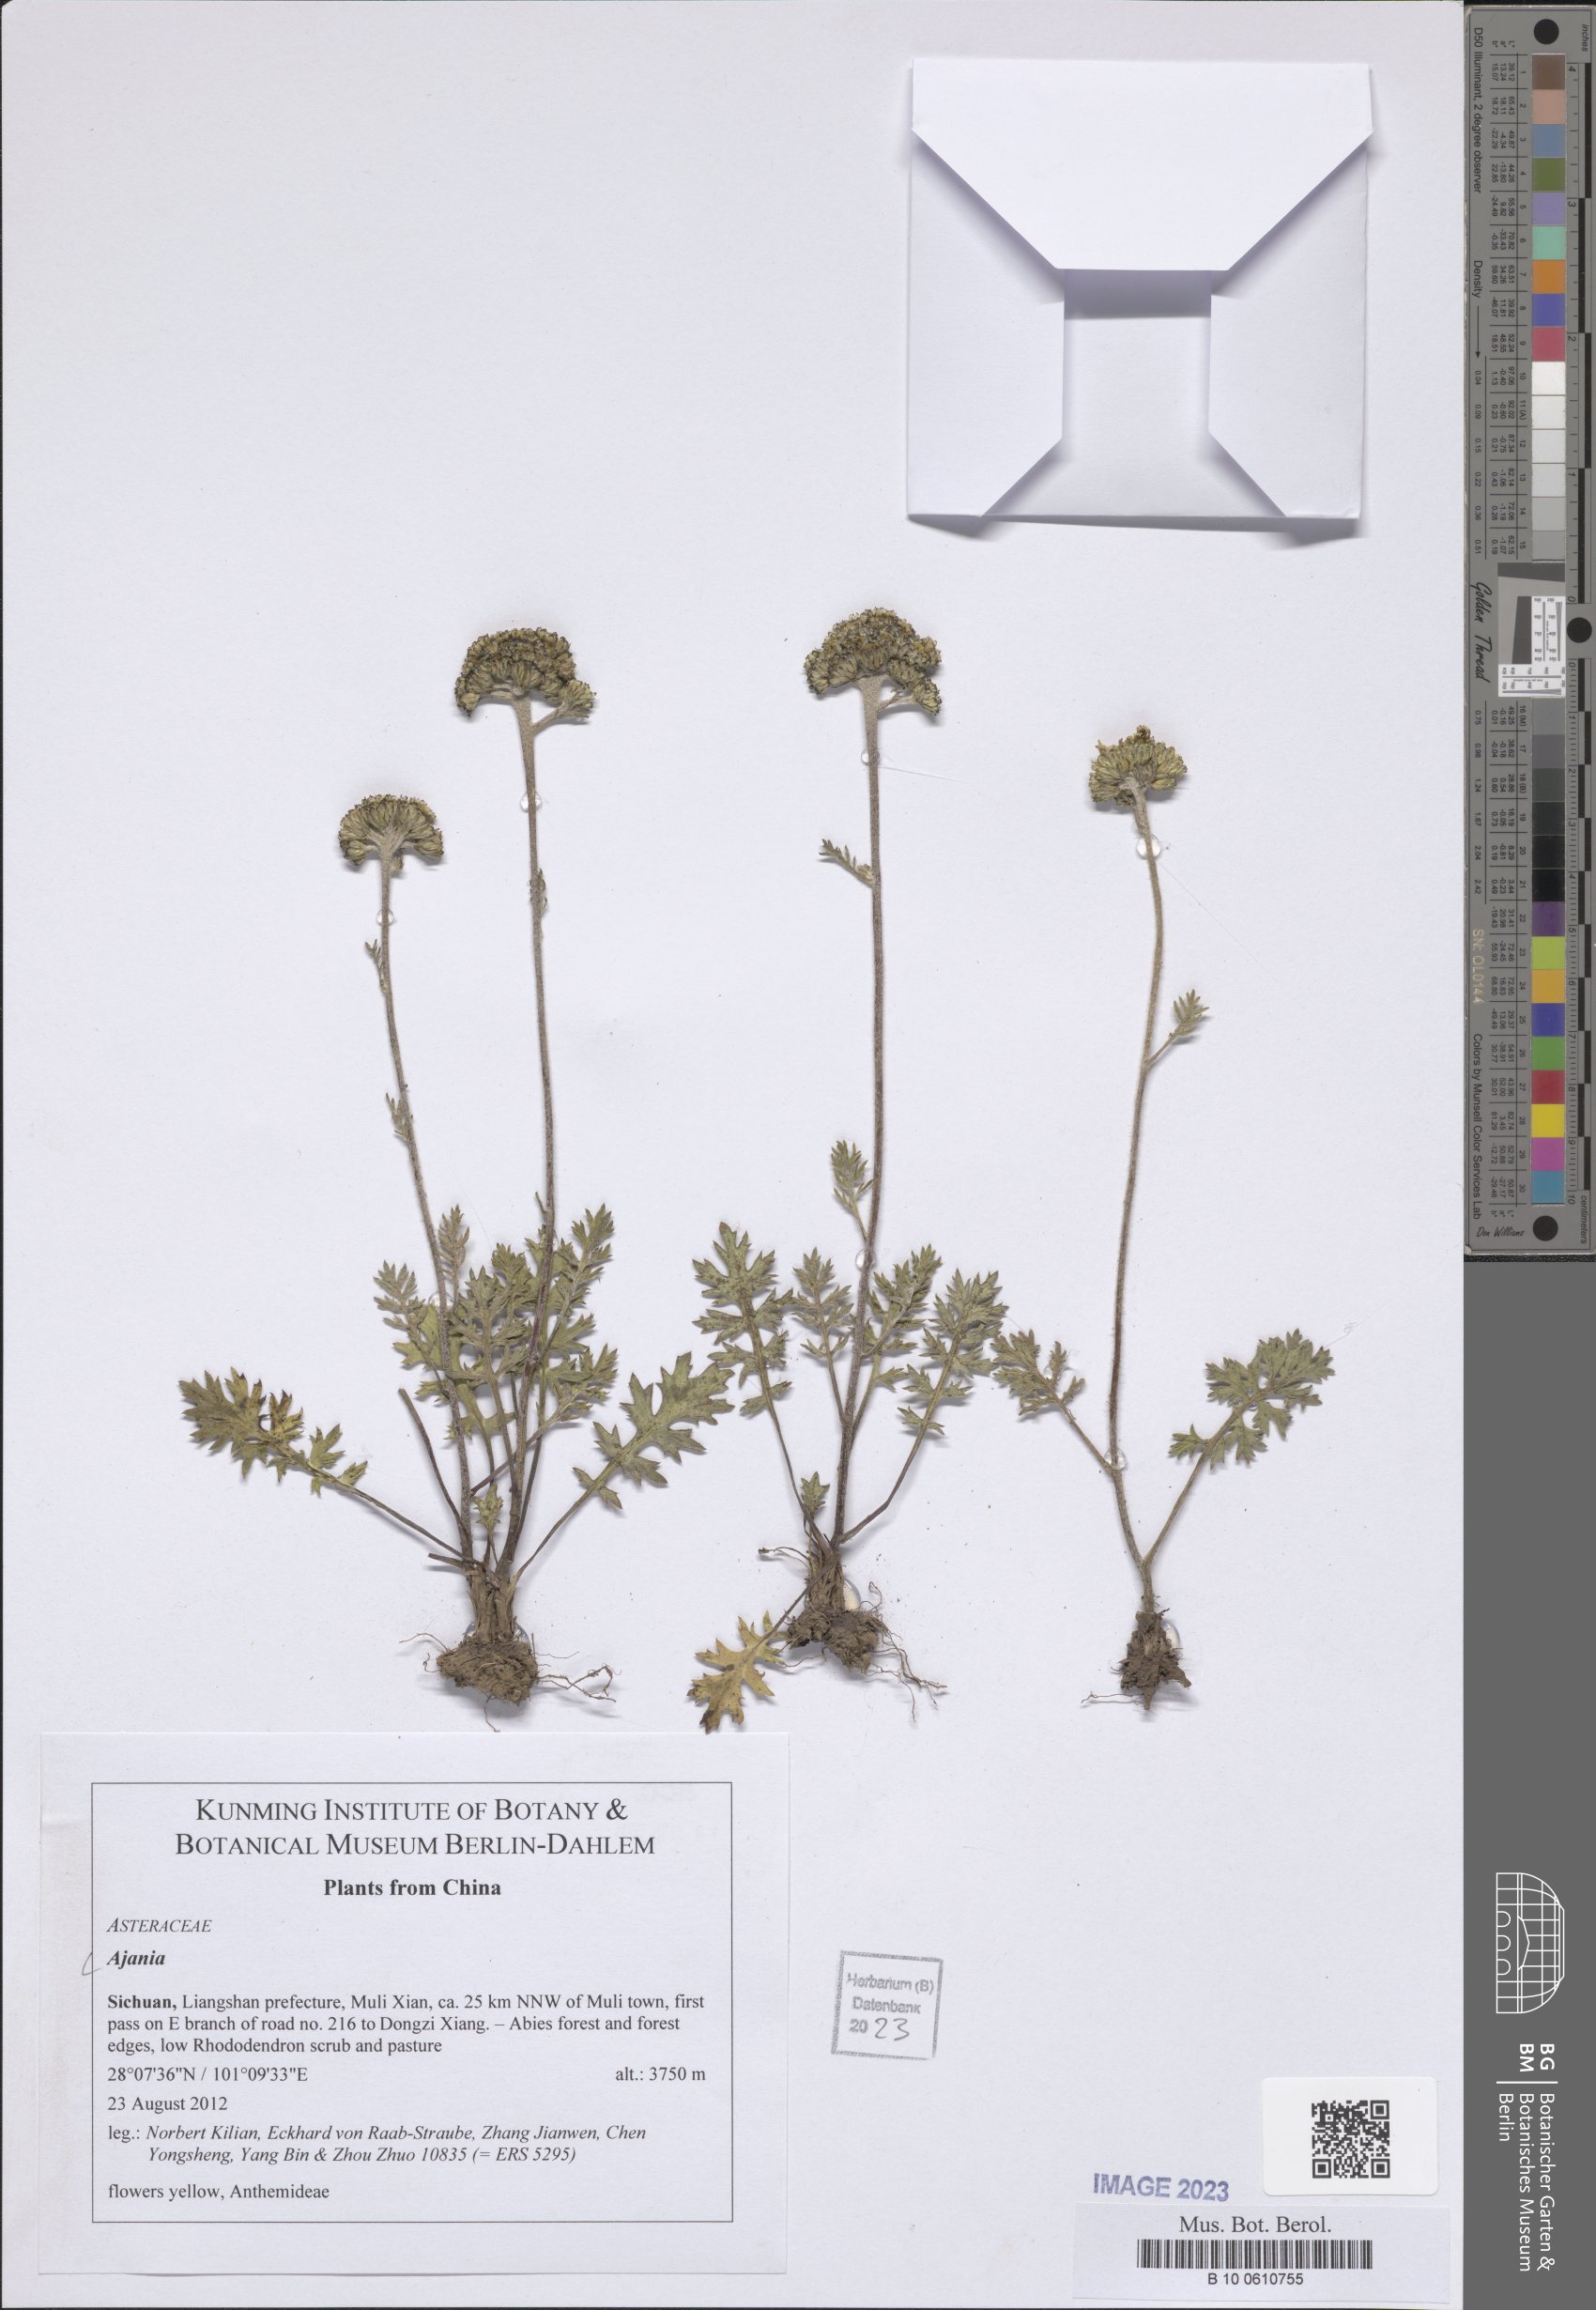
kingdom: Plantae
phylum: Tracheophyta
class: Magnoliopsida
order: Asterales
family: Asteraceae
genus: Ajania
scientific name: Ajania
